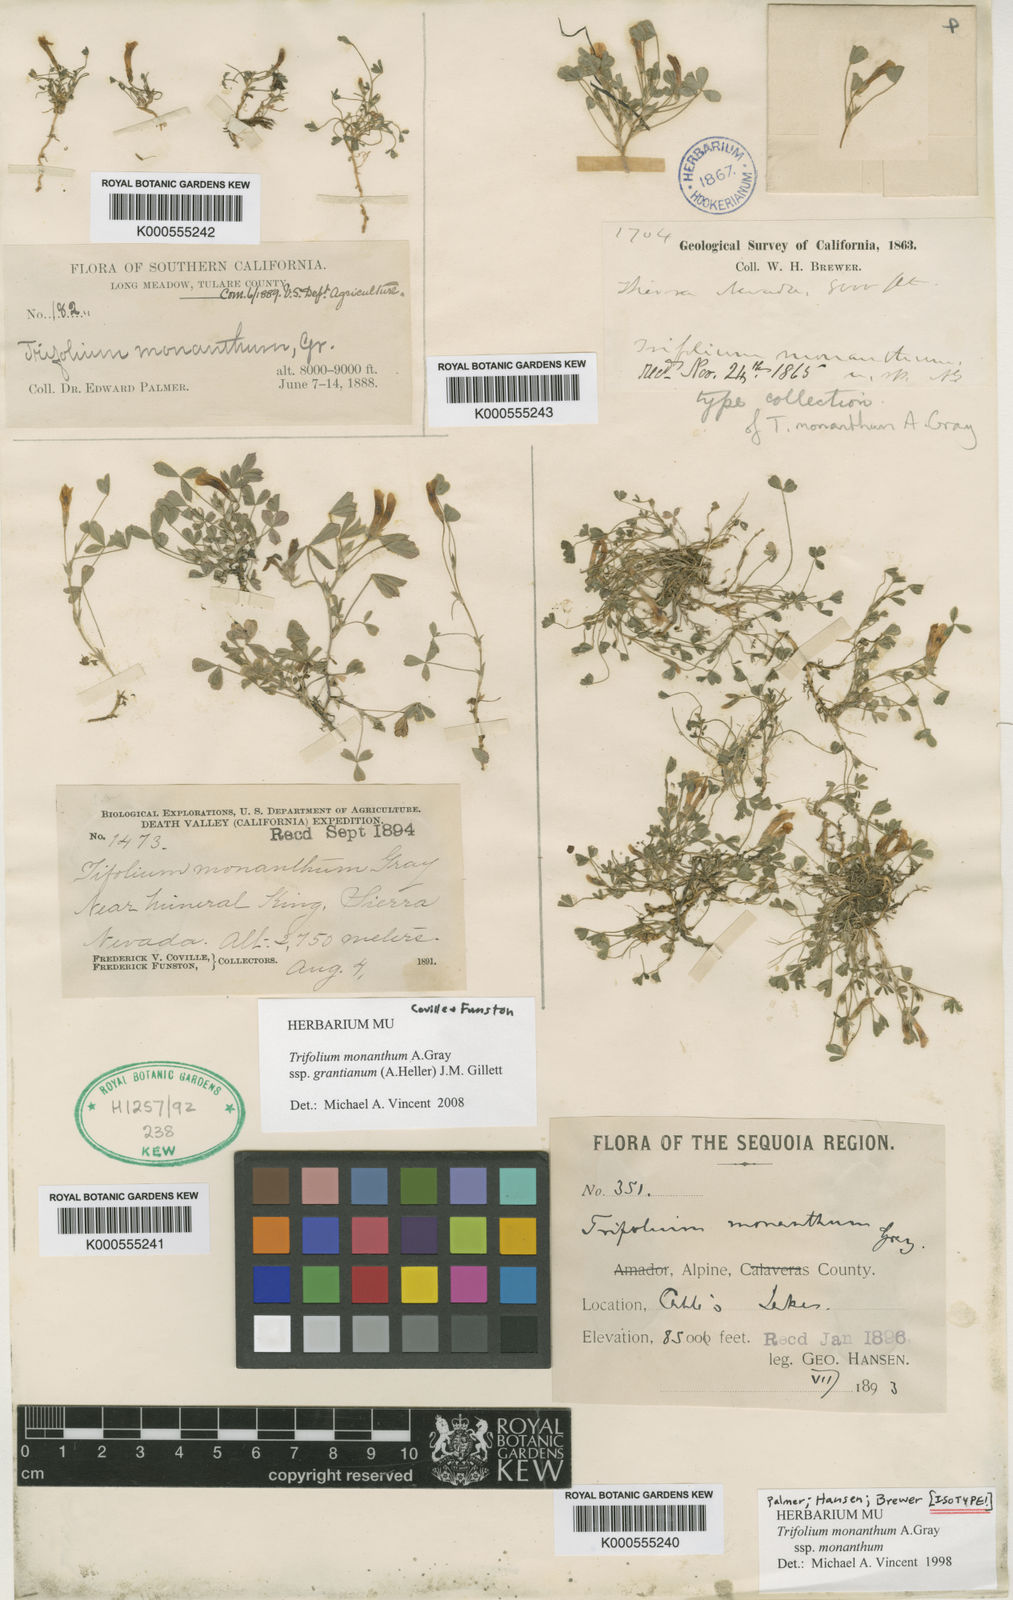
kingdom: Plantae
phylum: Tracheophyta
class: Magnoliopsida
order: Fabales
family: Fabaceae
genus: Trifolium
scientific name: Trifolium monanthum
